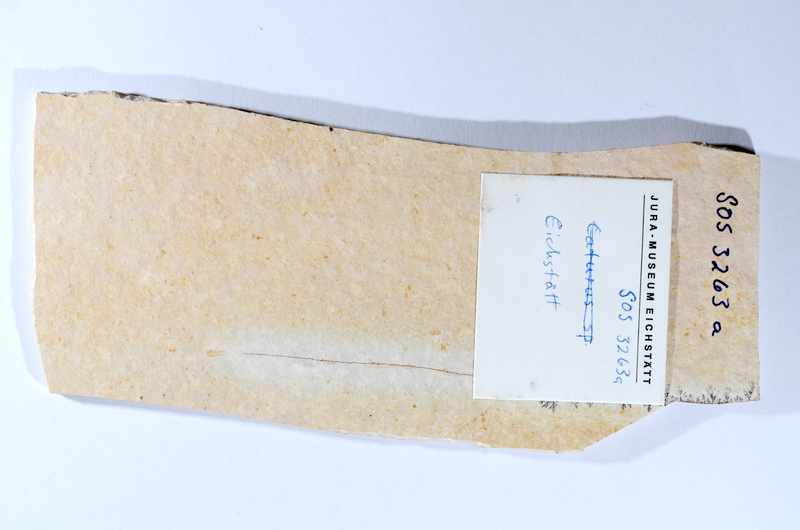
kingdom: Animalia
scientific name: Animalia
